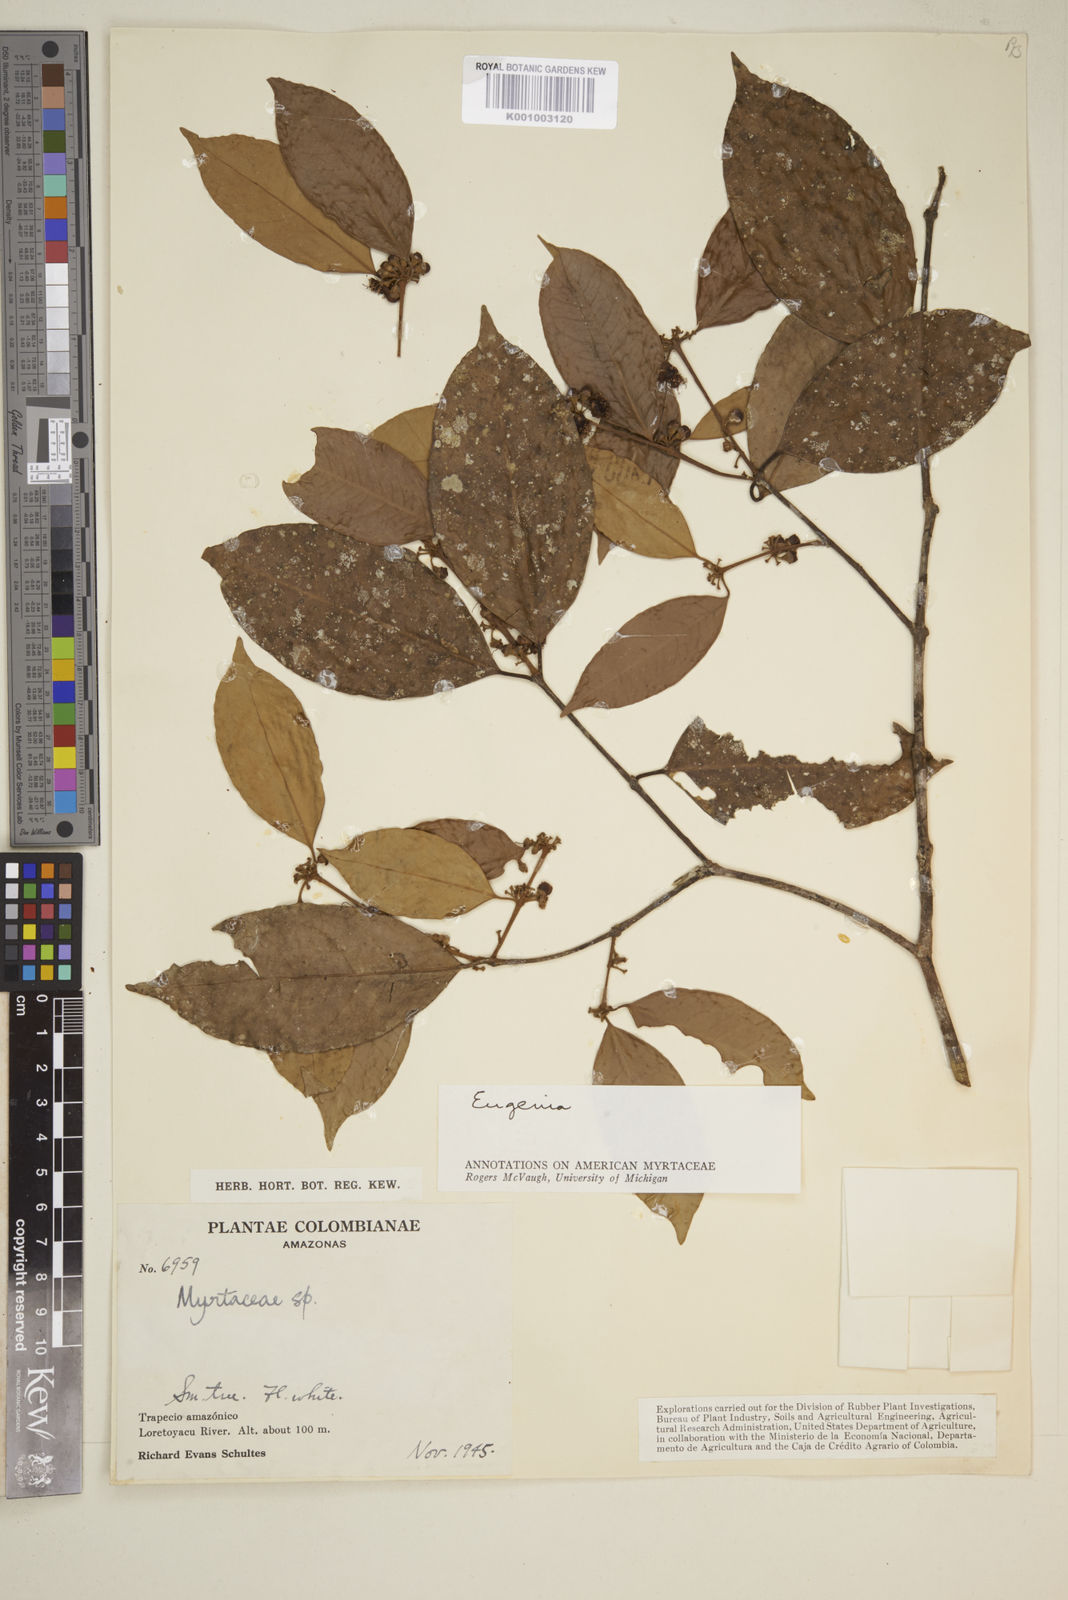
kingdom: Plantae
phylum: Tracheophyta
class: Magnoliopsida
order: Myrtales
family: Myrtaceae
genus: Eugenia
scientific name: Eugenia
